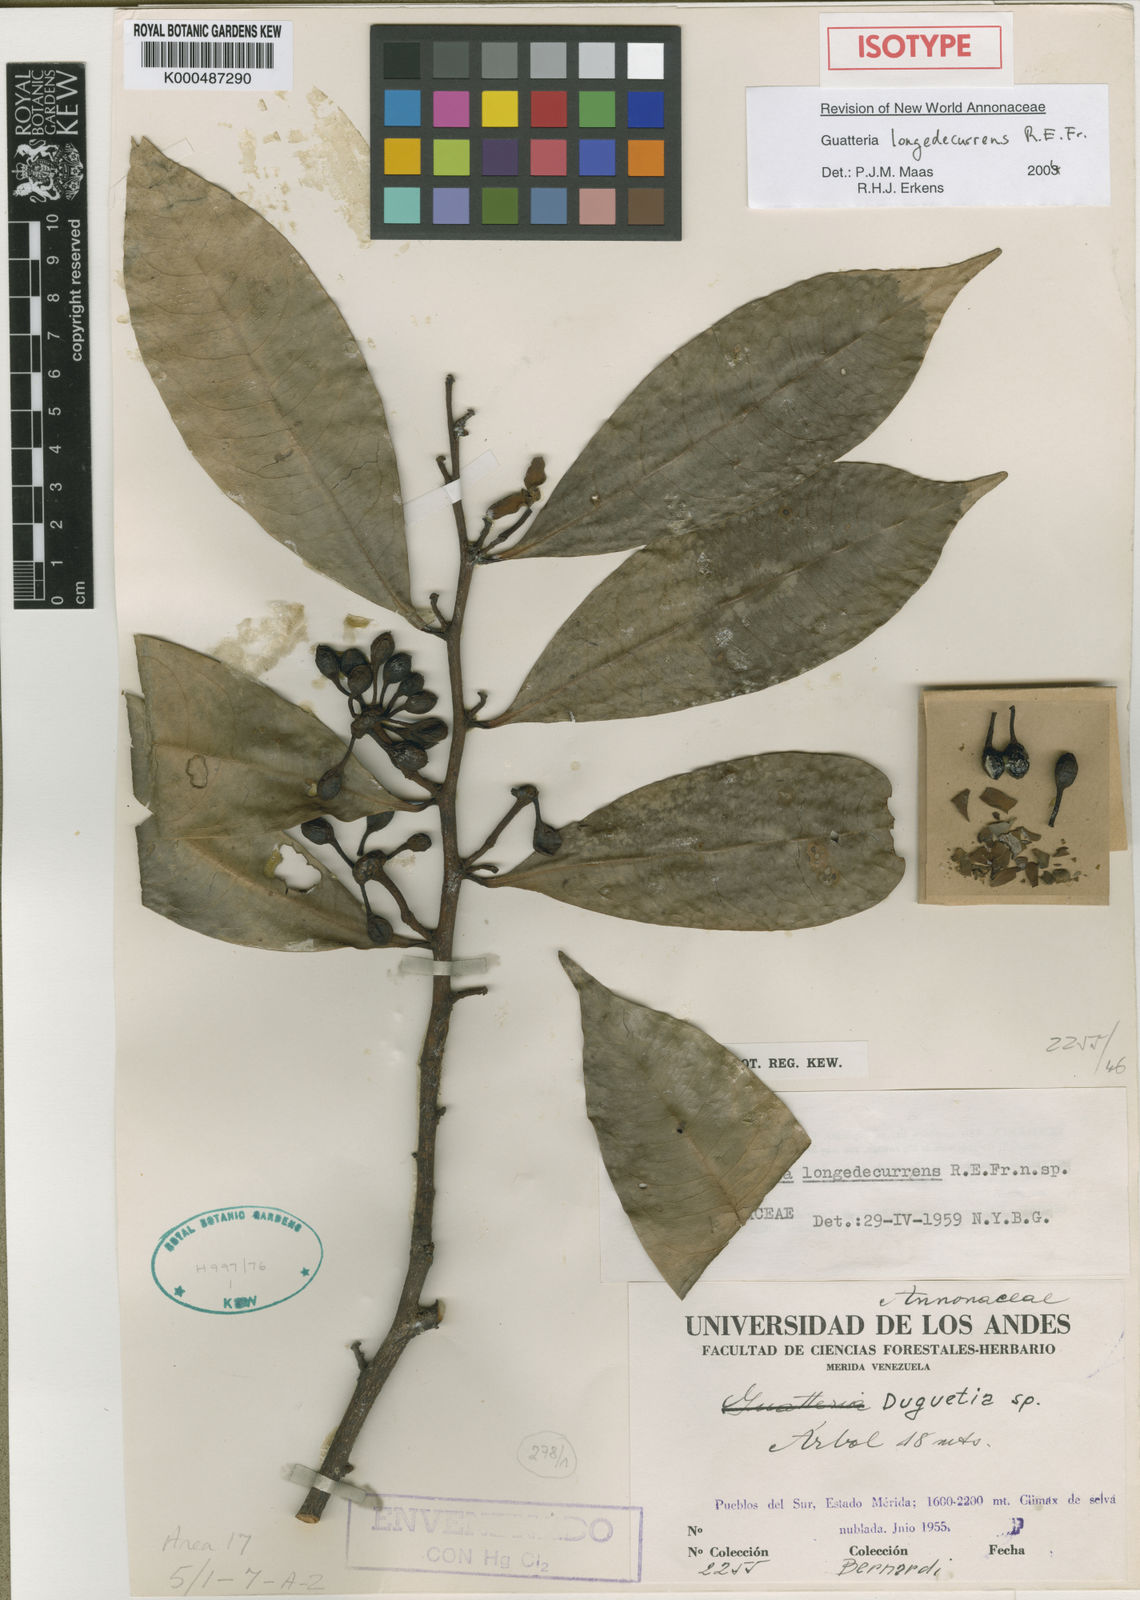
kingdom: Plantae
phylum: Tracheophyta
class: Magnoliopsida
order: Magnoliales
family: Annonaceae
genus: Guatteria
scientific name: Guatteria saffordiana
